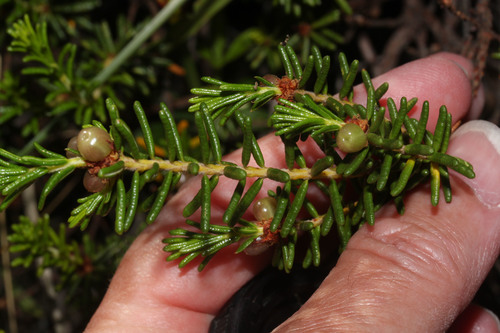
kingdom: Plantae
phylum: Tracheophyta
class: Magnoliopsida
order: Ericales
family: Ericaceae
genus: Corema
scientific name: Corema album
